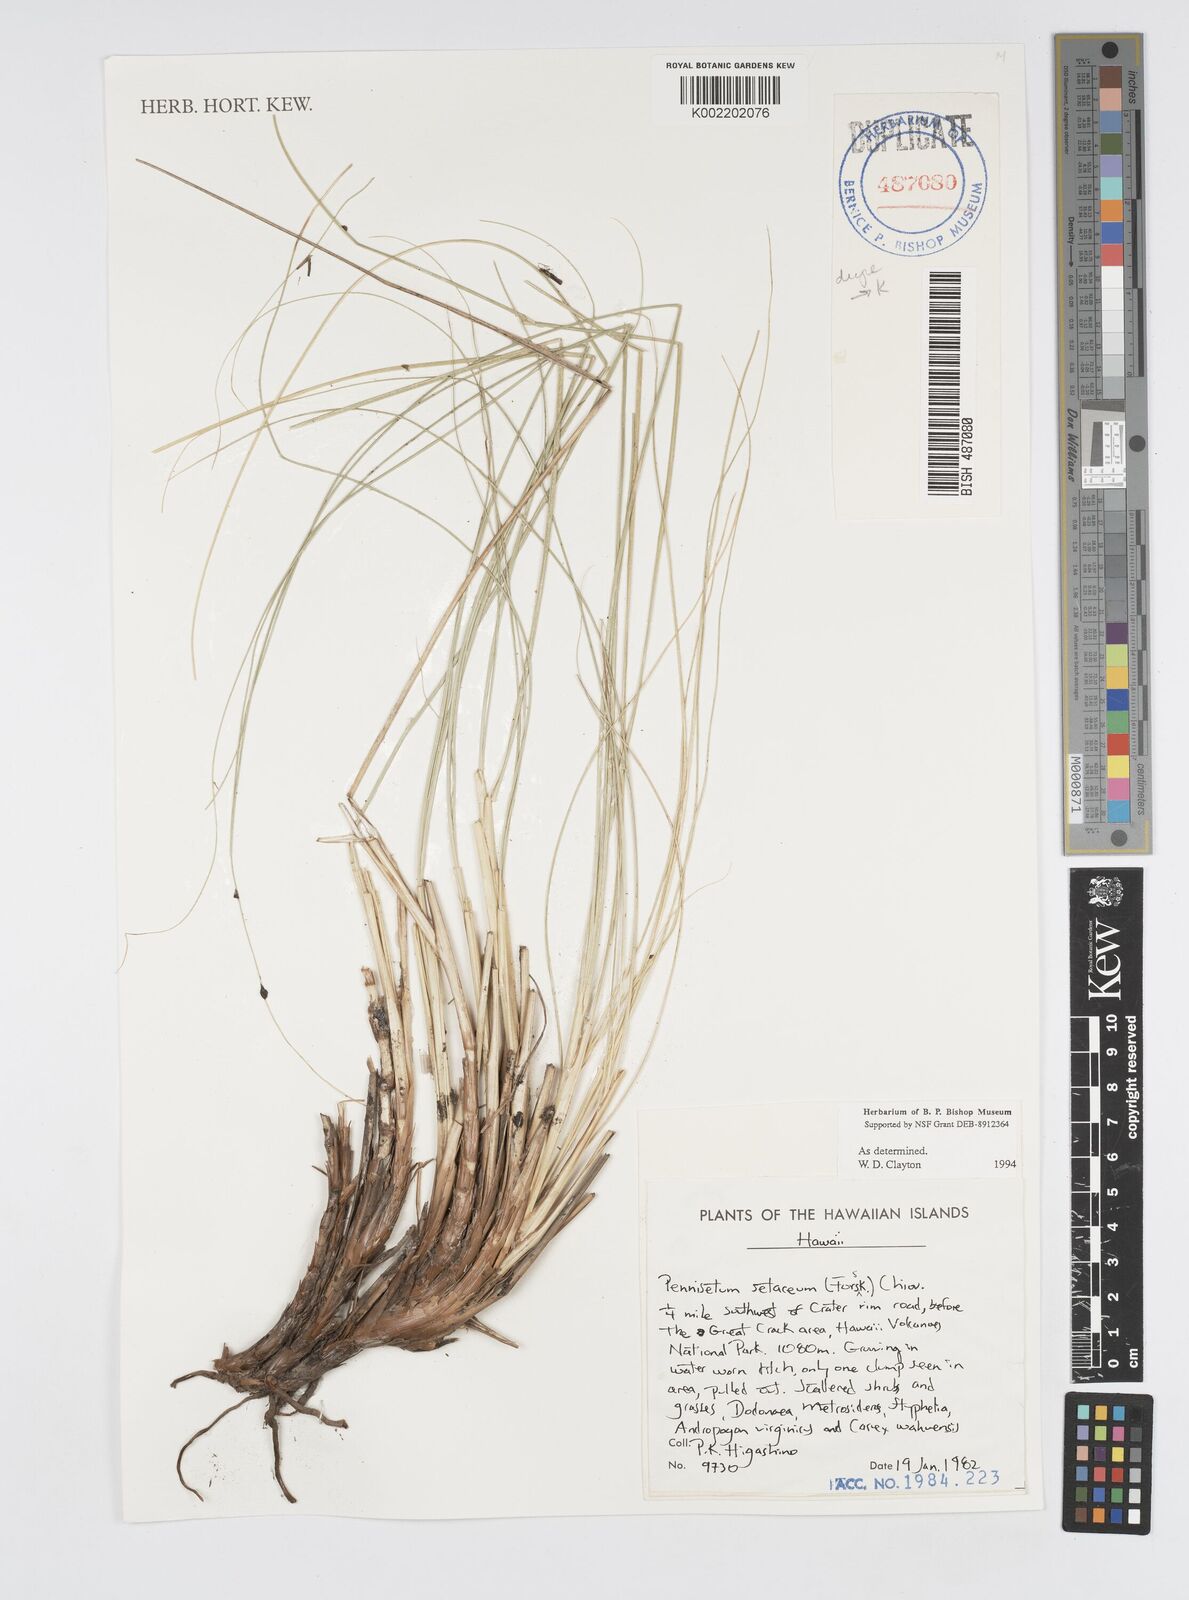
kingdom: Plantae
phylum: Tracheophyta
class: Liliopsida
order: Poales
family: Poaceae
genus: Cenchrus
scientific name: Cenchrus setaceus
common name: Crimson fountaingrass
